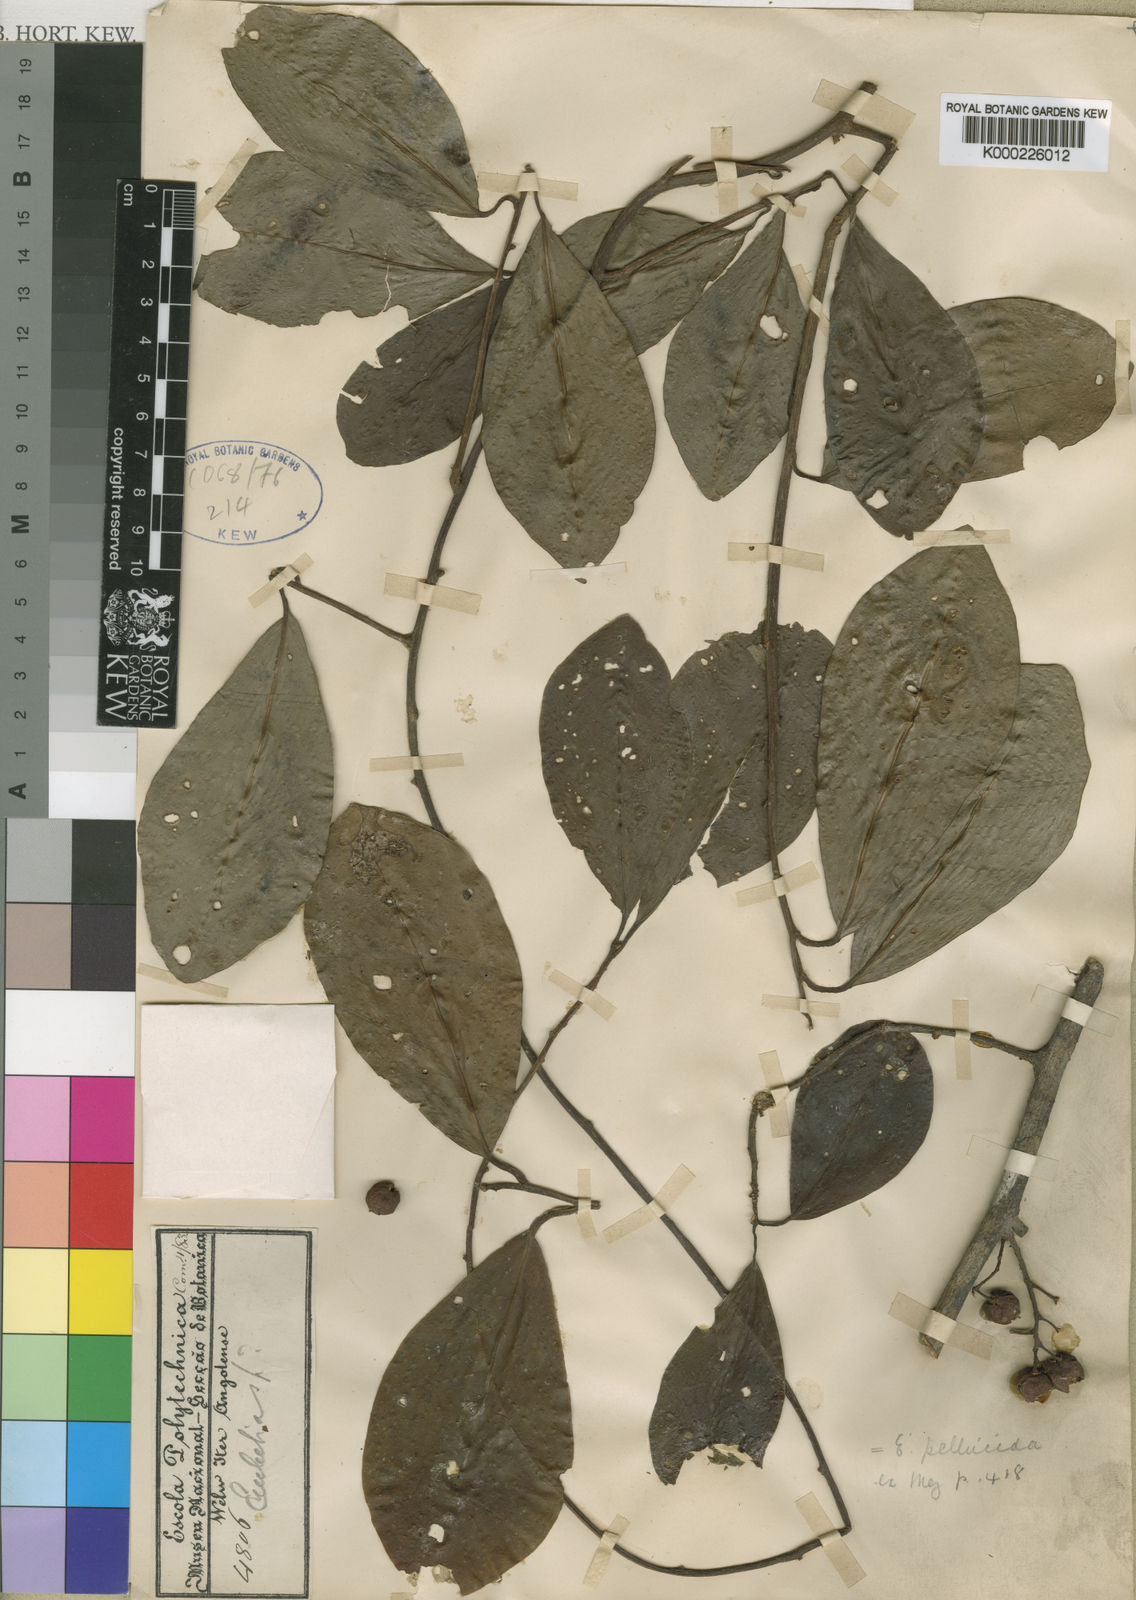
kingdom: Plantae
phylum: Tracheophyta
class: Magnoliopsida
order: Ericales
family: Primulaceae
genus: Embelia
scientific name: Embelia schimperi
